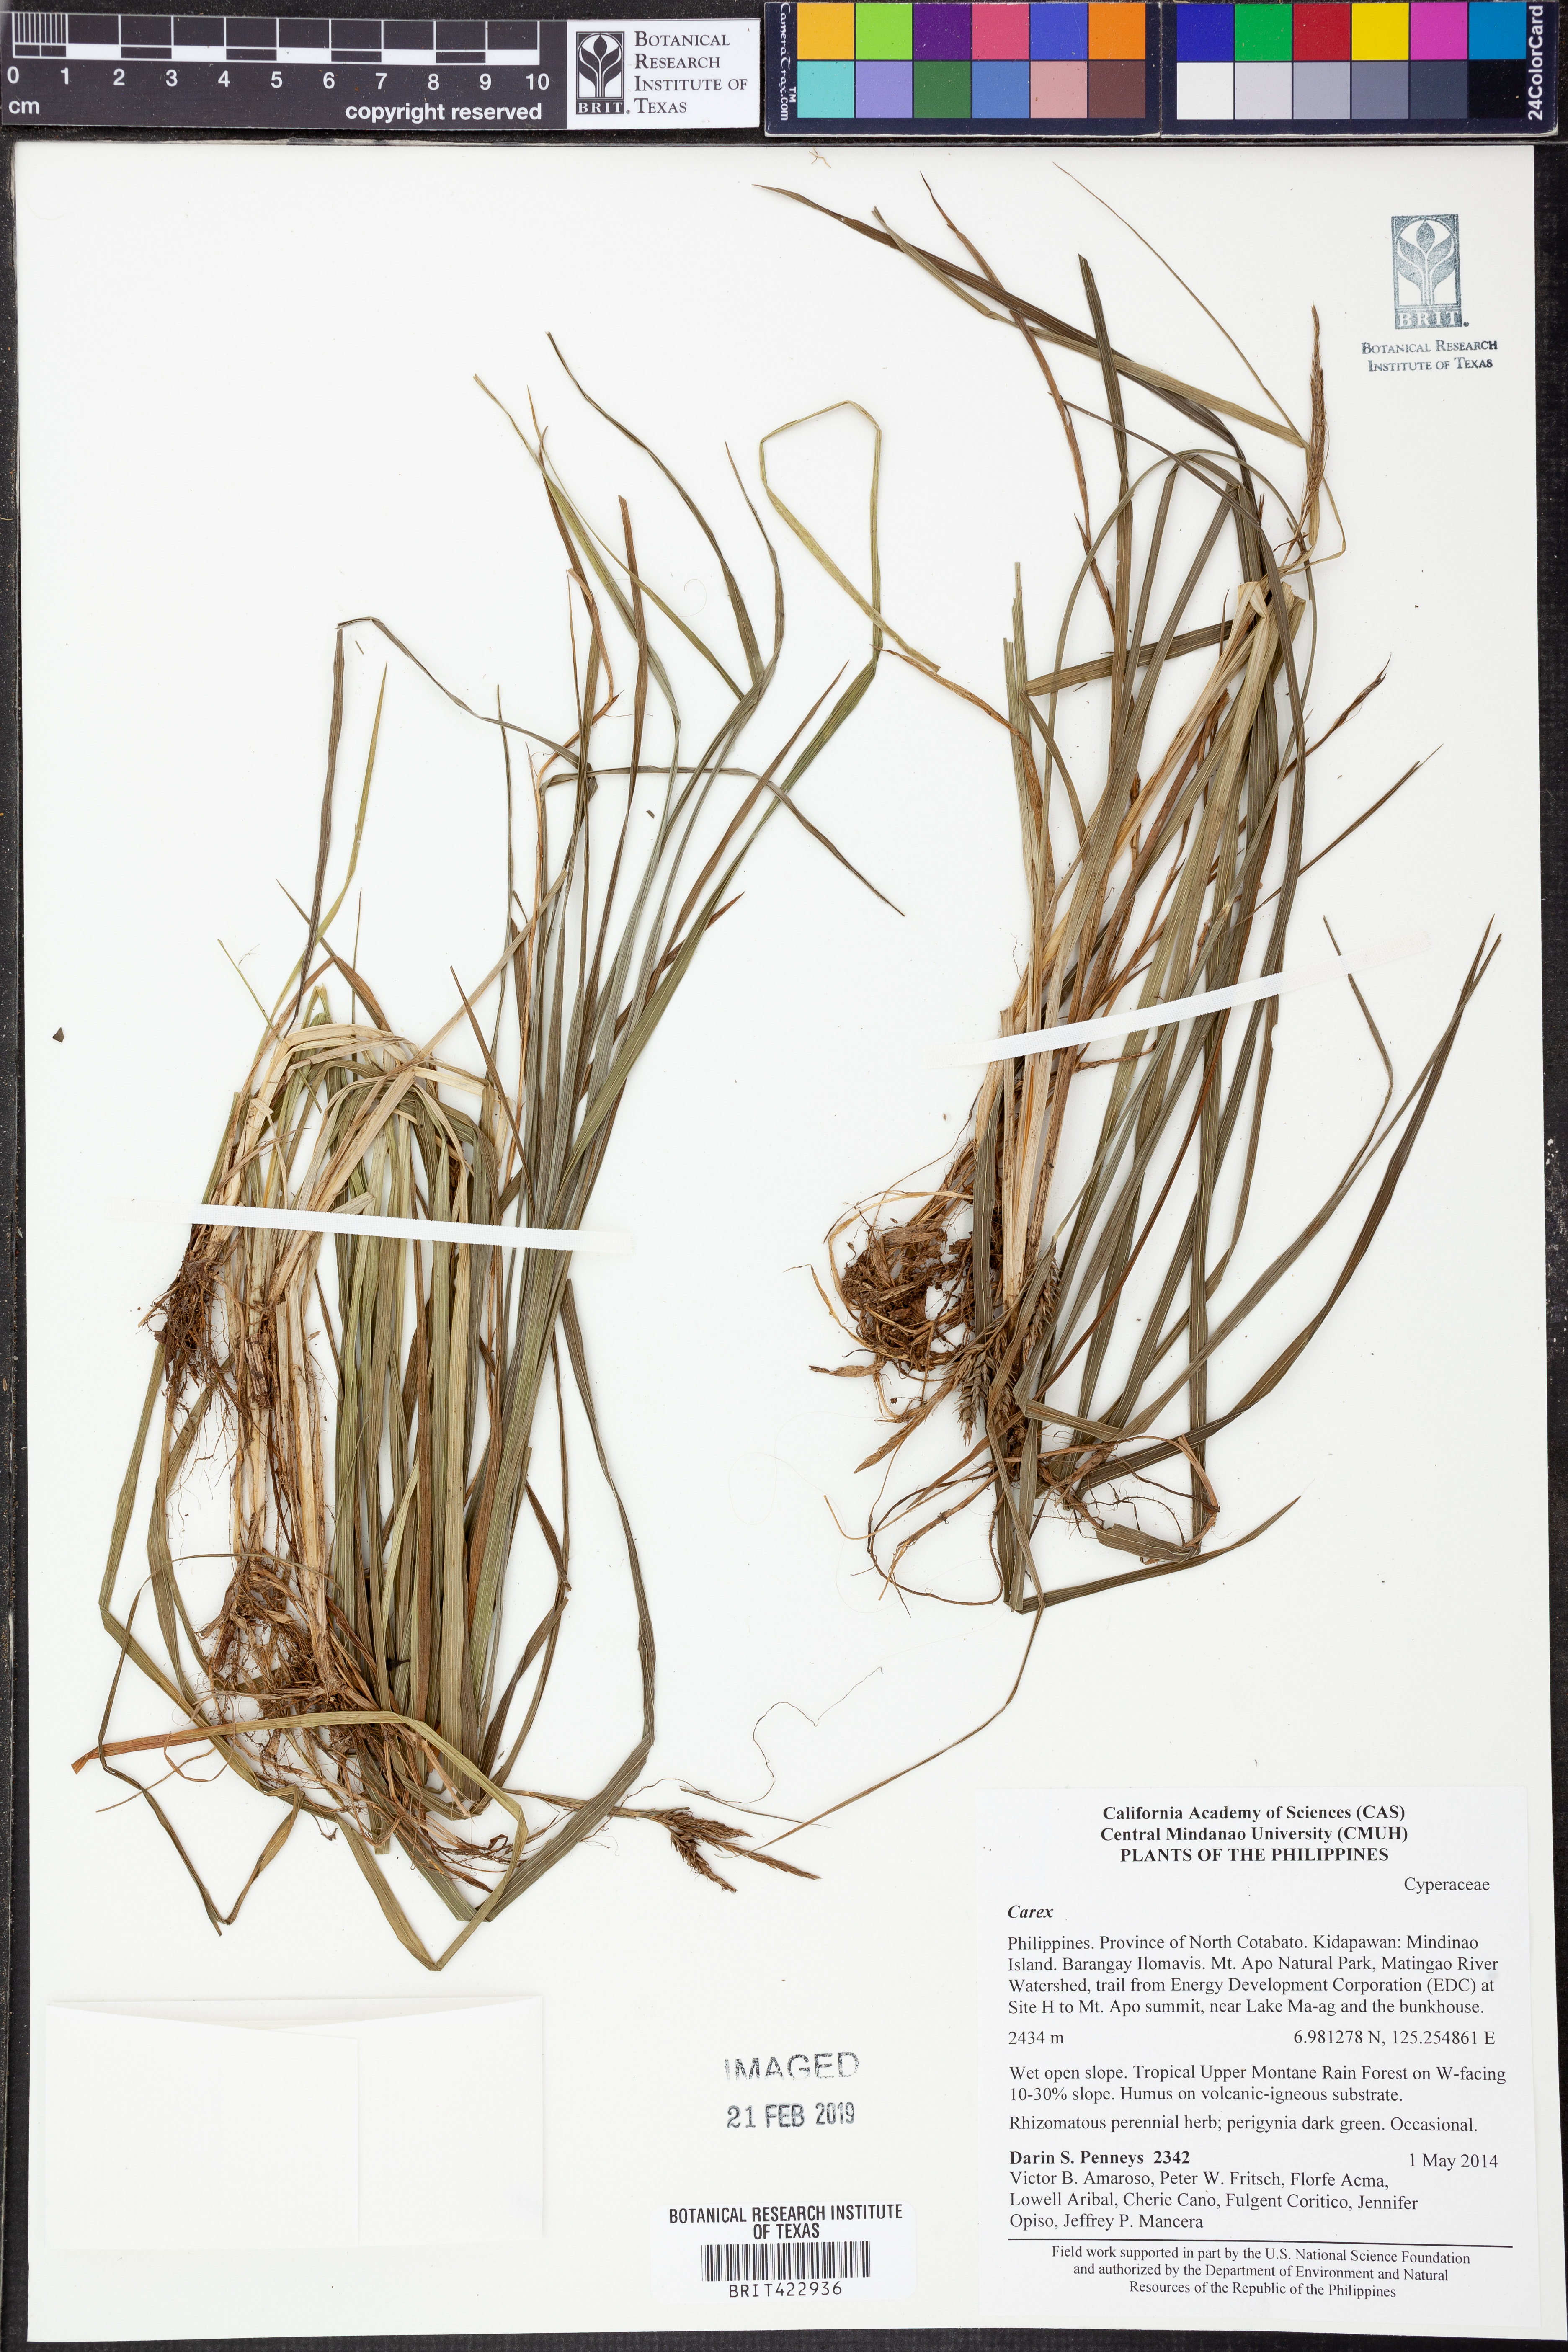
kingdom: Plantae
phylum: Tracheophyta
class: Liliopsida
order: Poales
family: Cyperaceae
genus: Carex
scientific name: Carex
